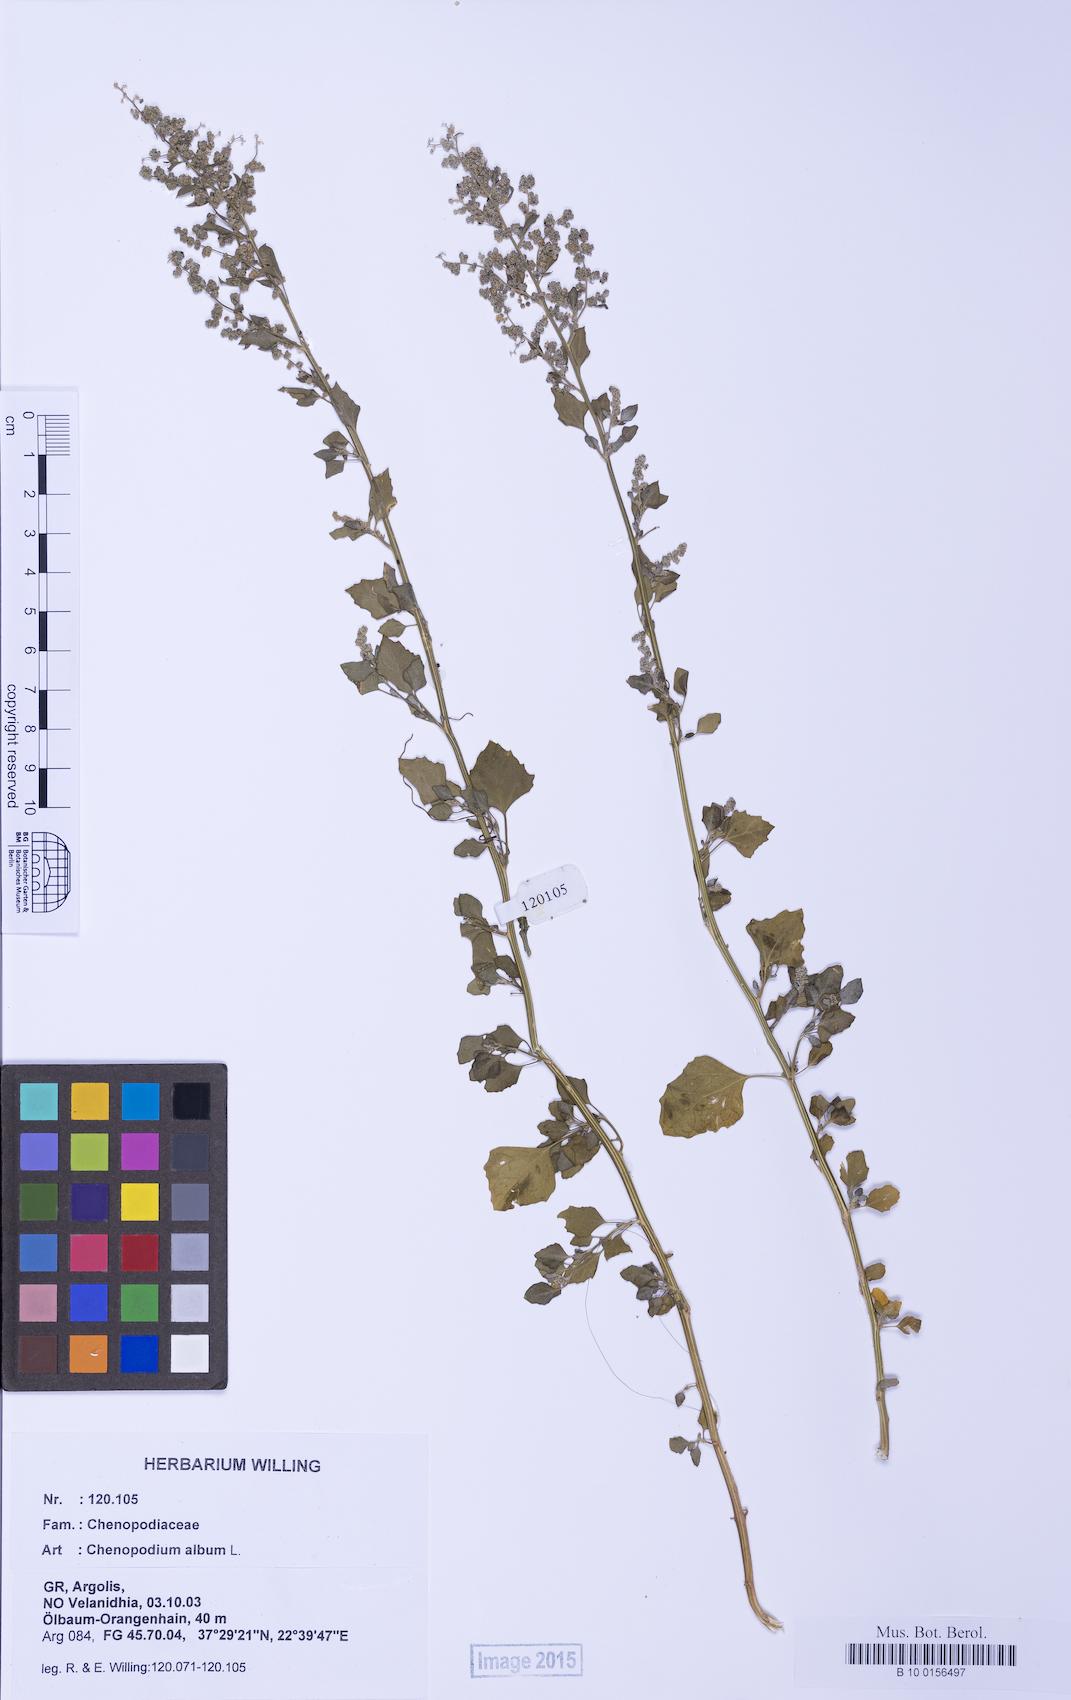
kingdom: Plantae
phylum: Tracheophyta
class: Magnoliopsida
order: Caryophyllales
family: Amaranthaceae
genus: Chenopodium
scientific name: Chenopodium album
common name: Fat-hen
